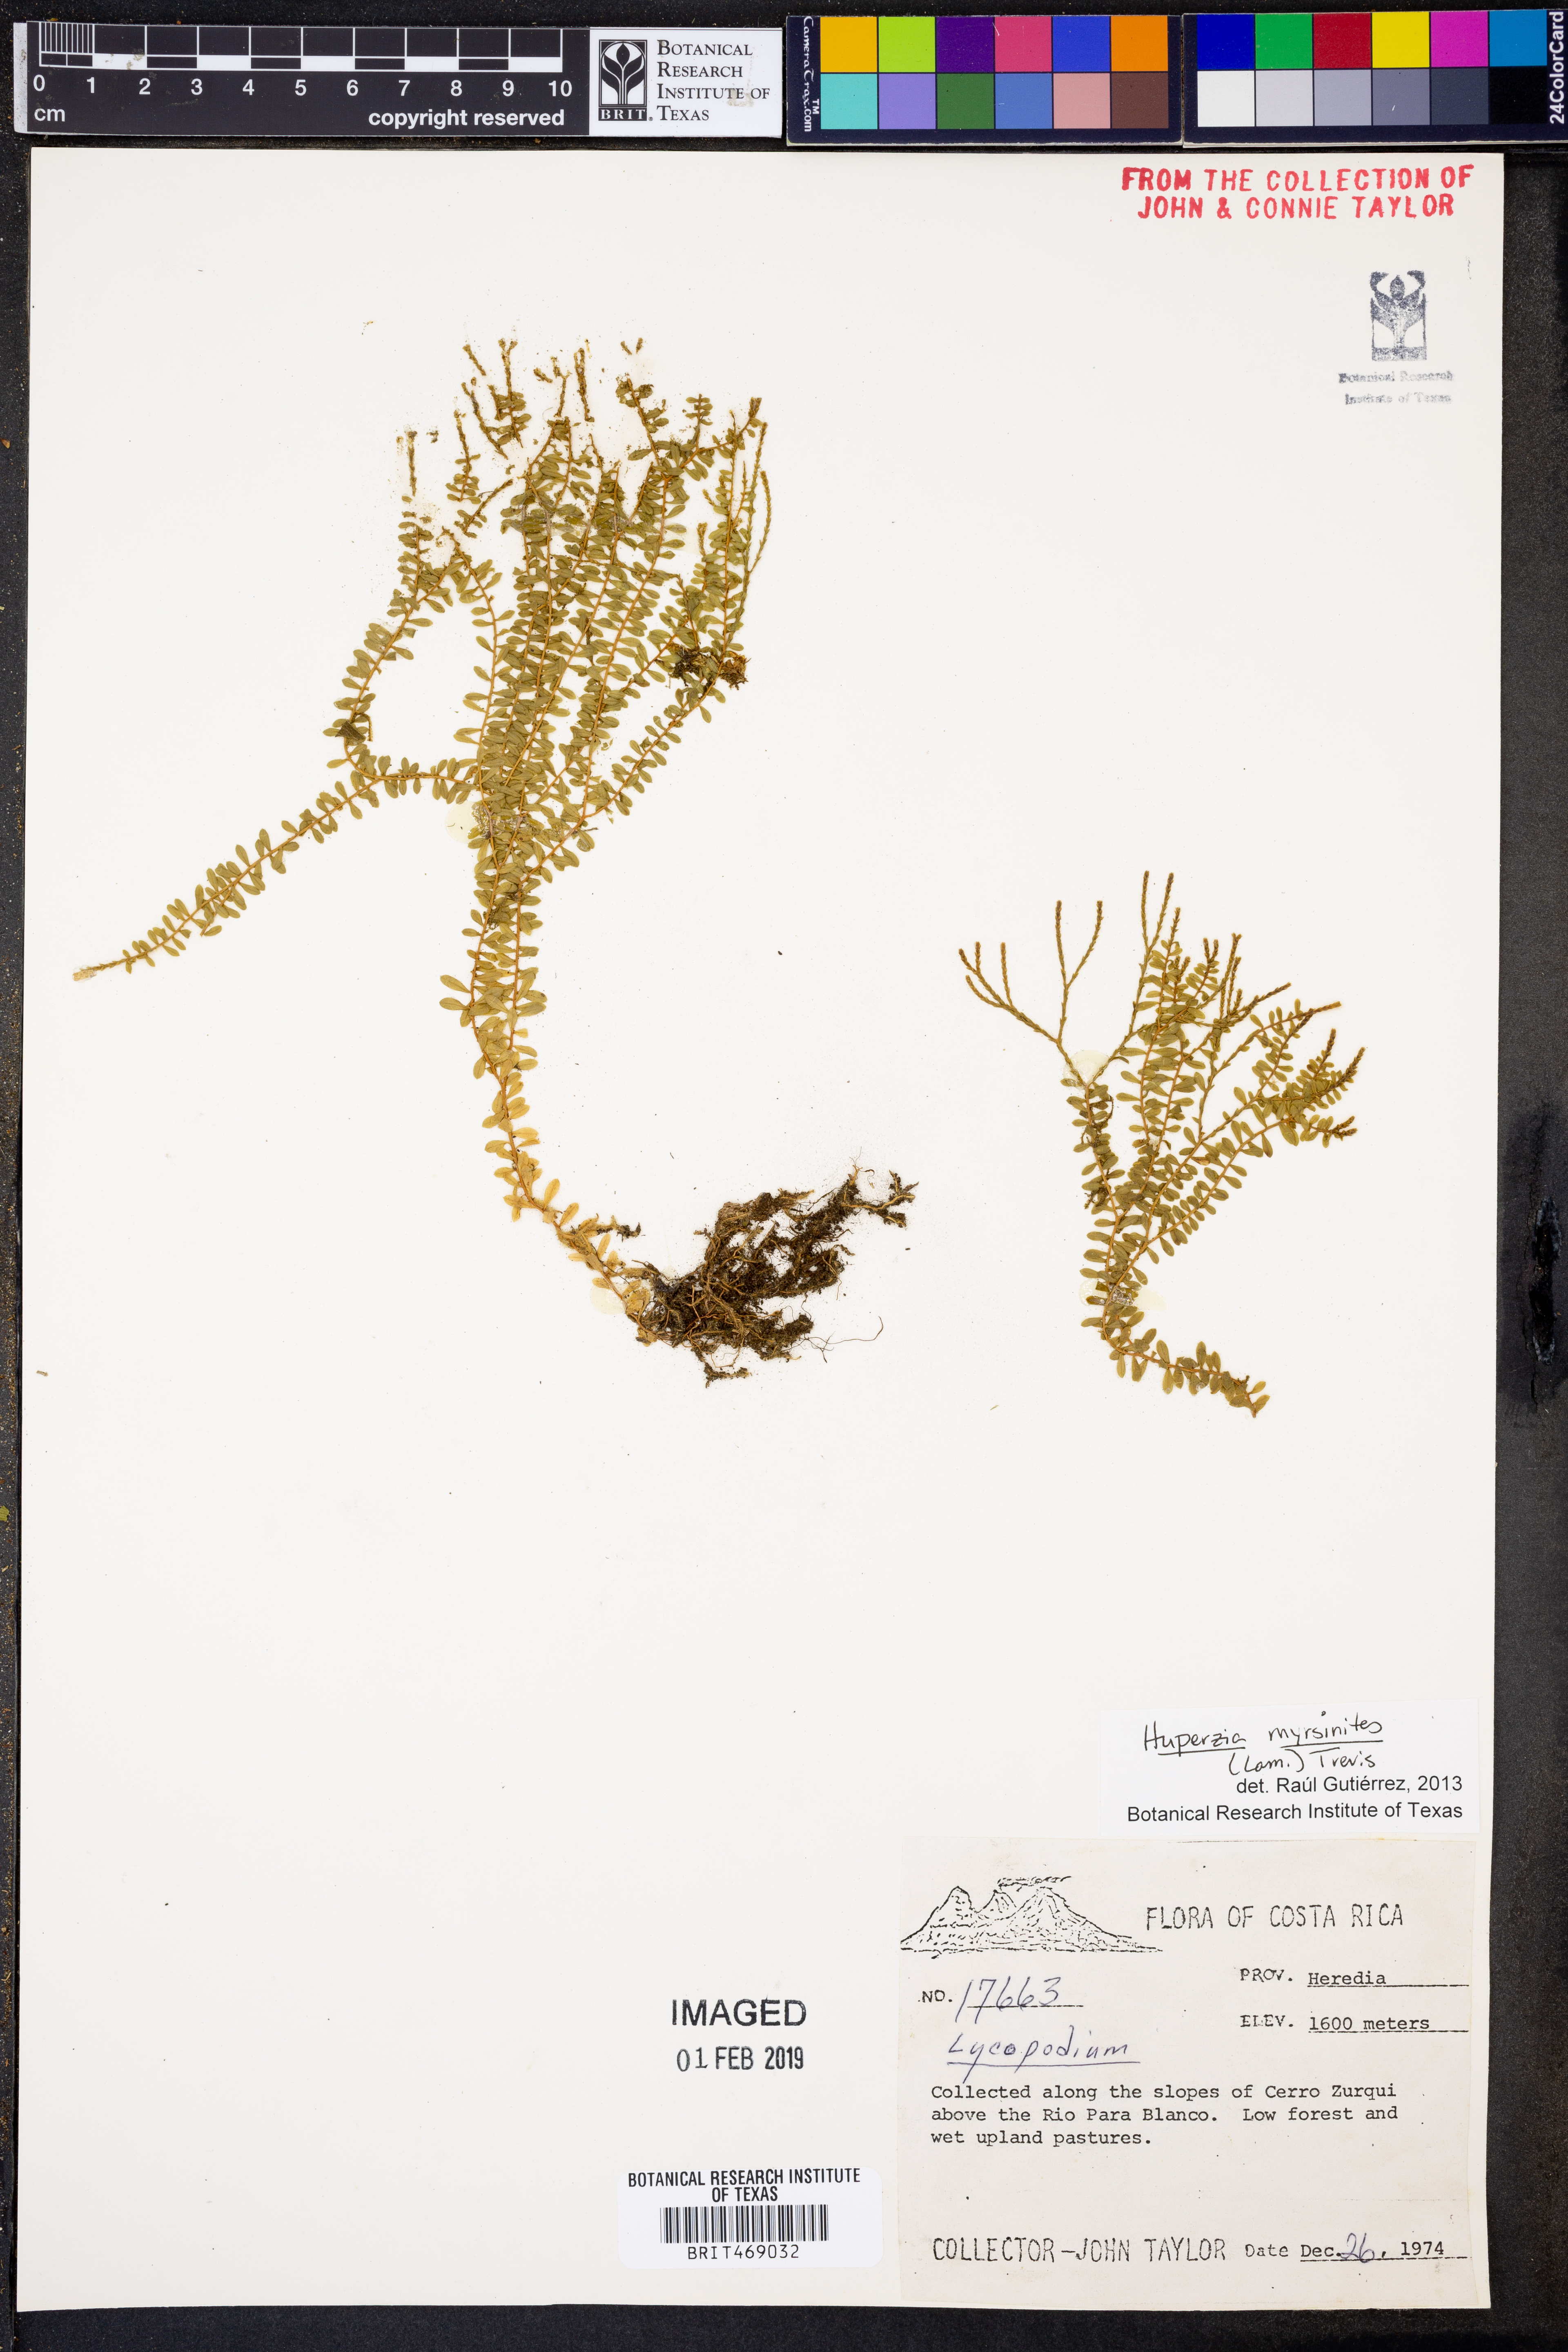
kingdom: Plantae
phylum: Tracheophyta
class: Lycopodiopsida
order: Lycopodiales
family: Lycopodiaceae
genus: Phlegmariurus
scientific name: Phlegmariurus myrsinites
